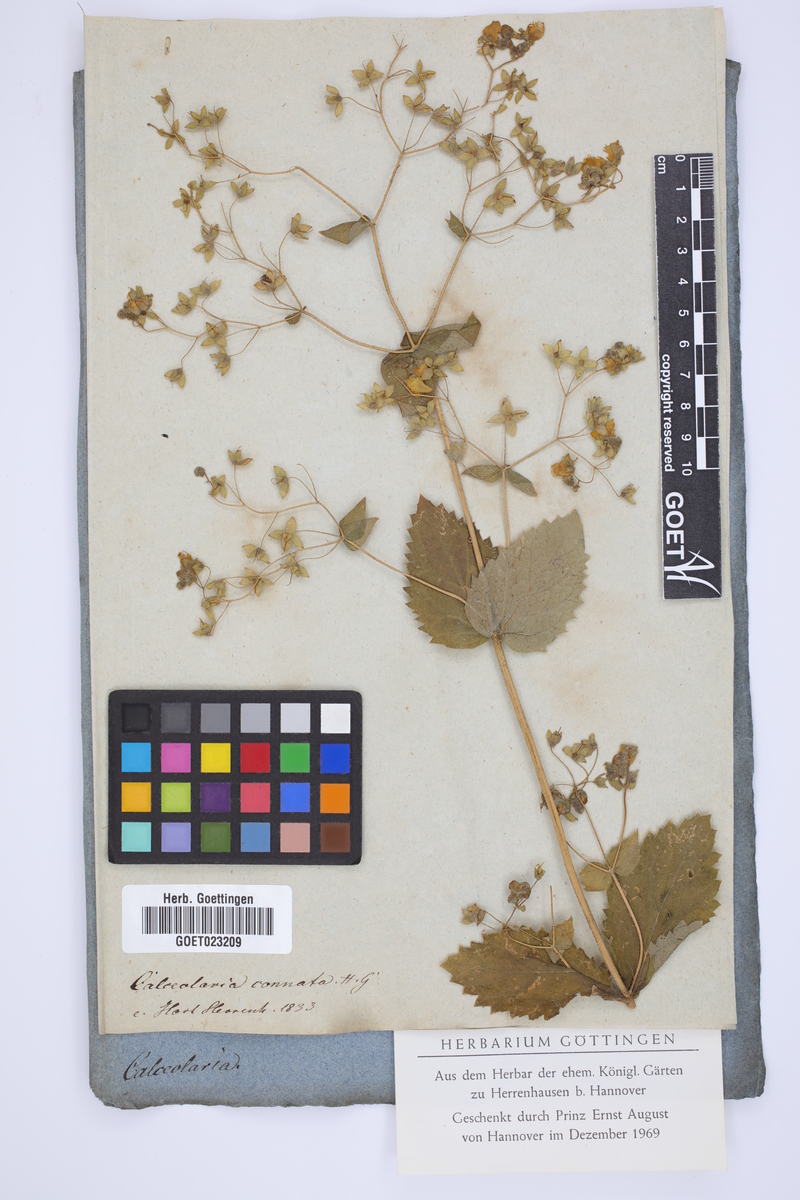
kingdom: Plantae
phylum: Tracheophyta
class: Magnoliopsida
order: Lamiales
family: Calceolariaceae
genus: Calceolaria
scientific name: Calceolaria petioalaris
